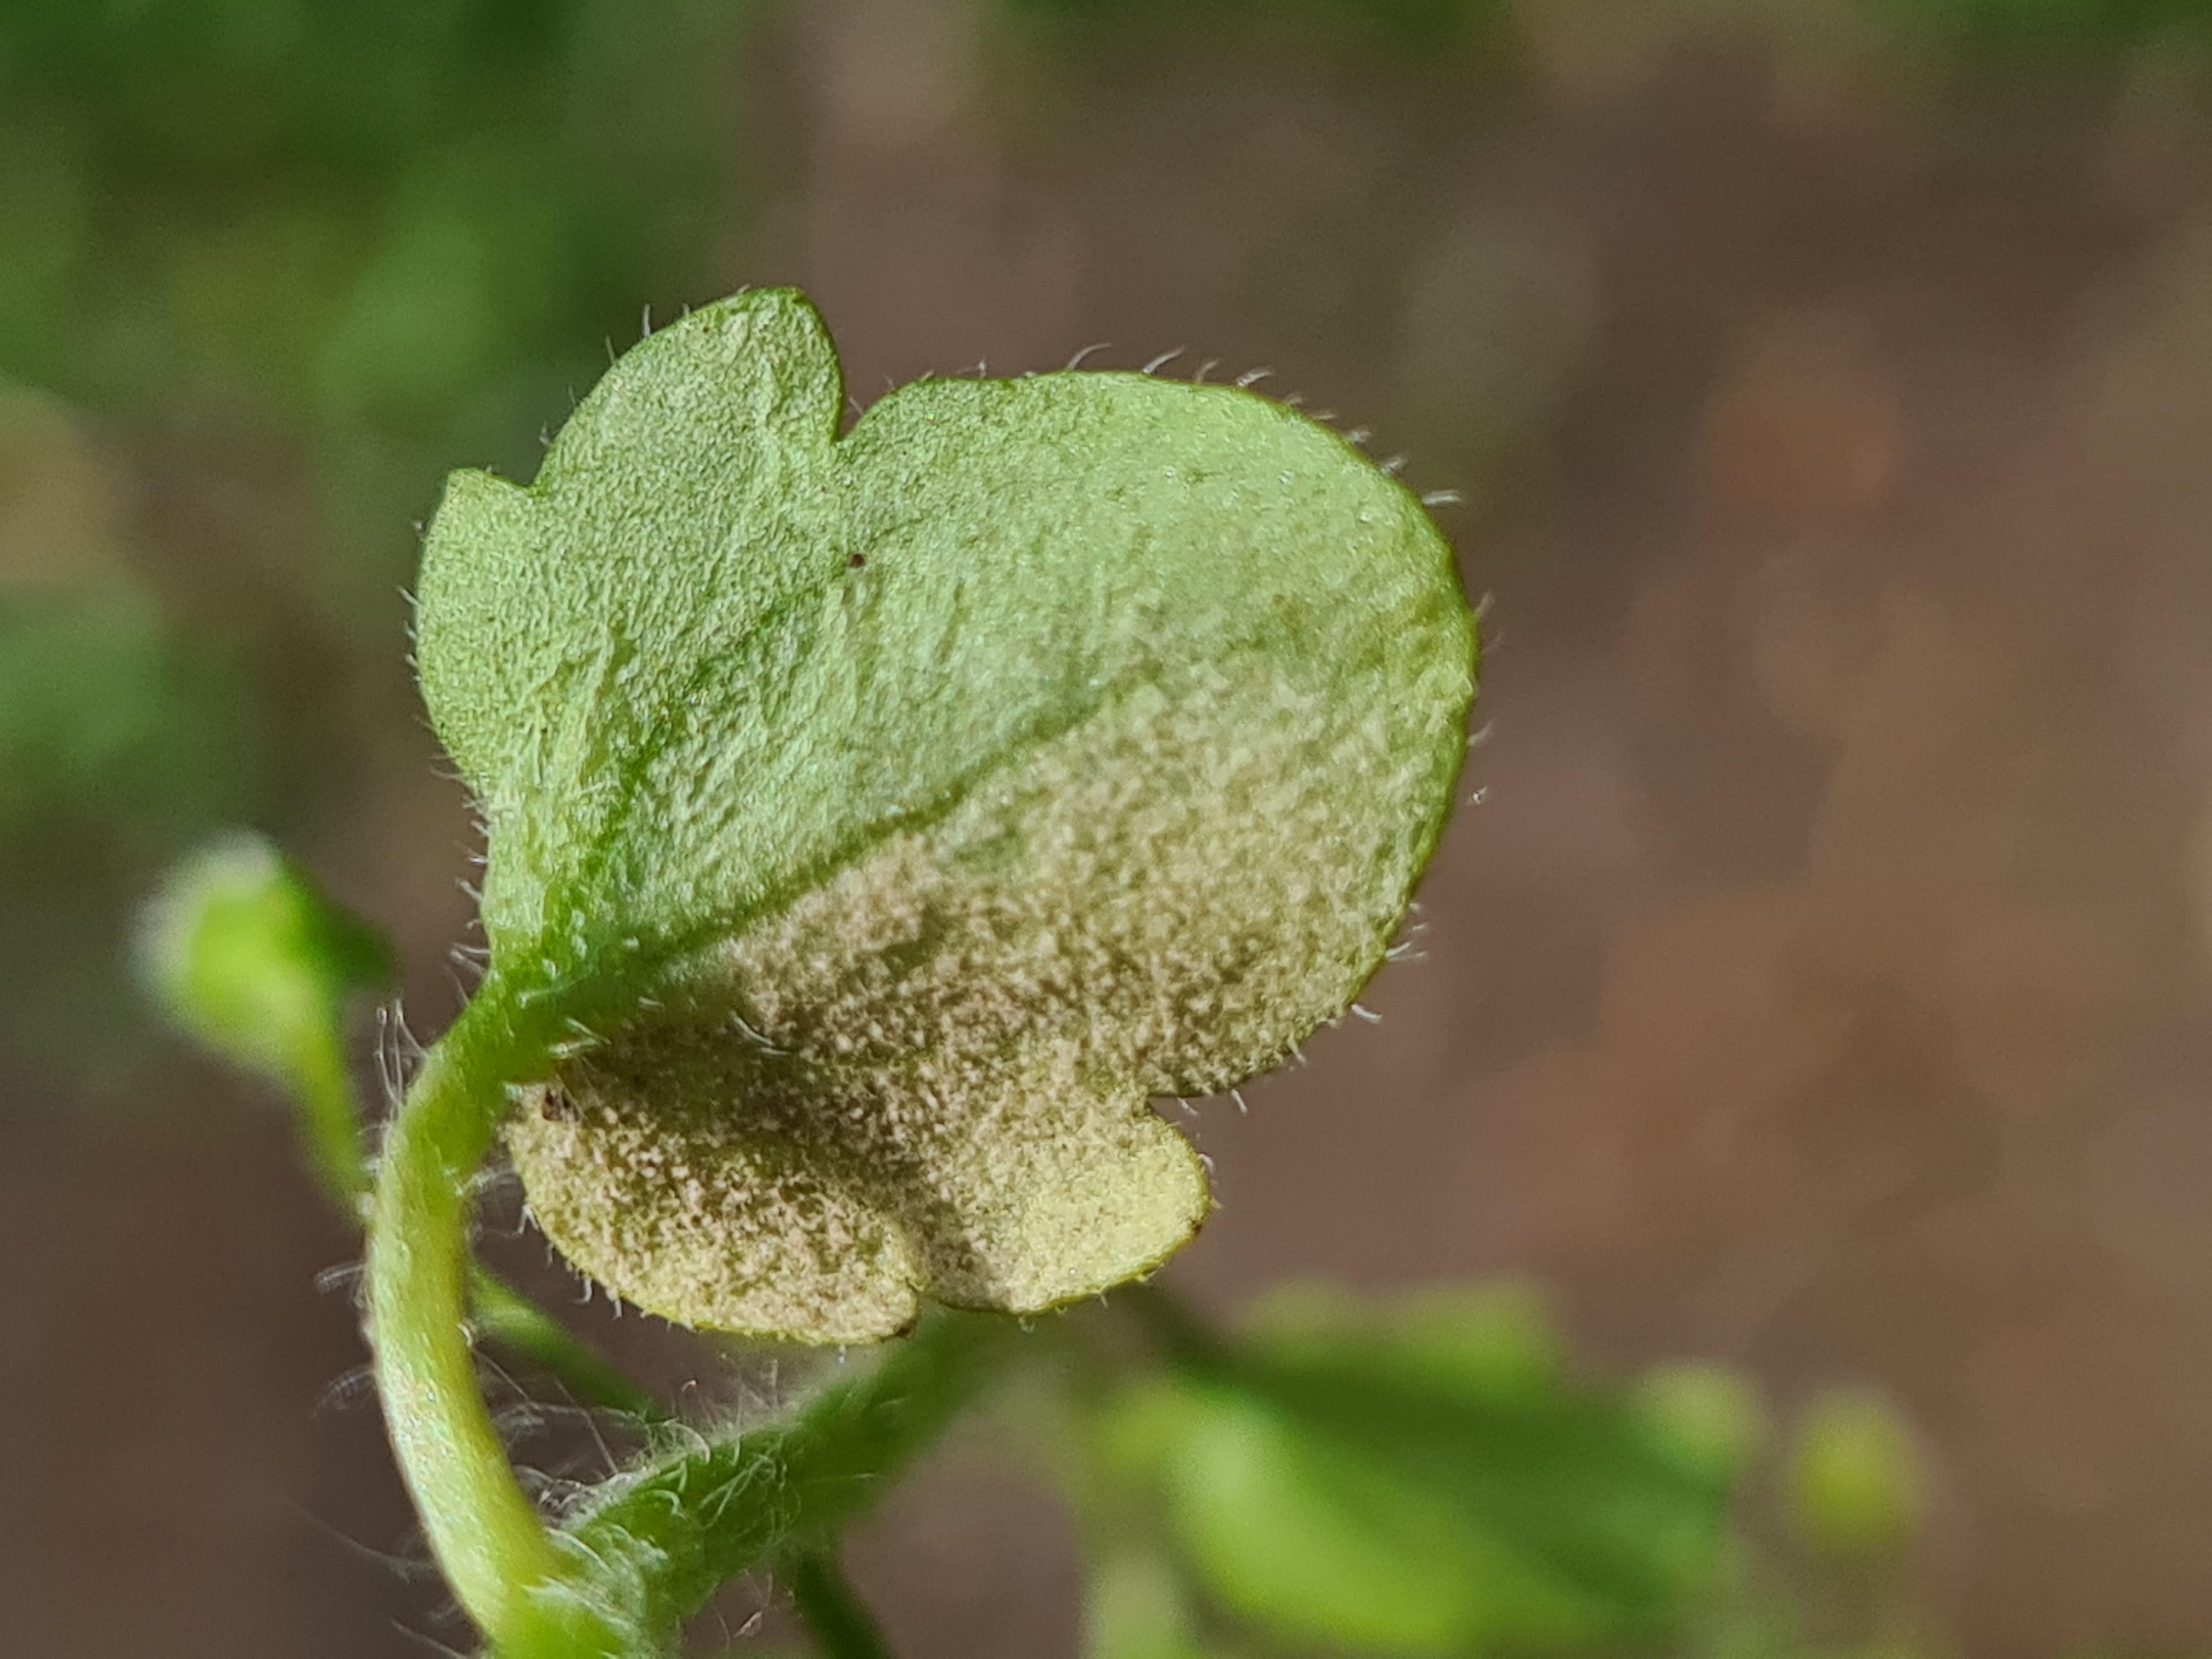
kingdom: Chromista
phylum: Oomycota
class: Peronosporea
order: Peronosporales
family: Peronosporaceae
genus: Peronospora
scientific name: Peronospora arvensis
